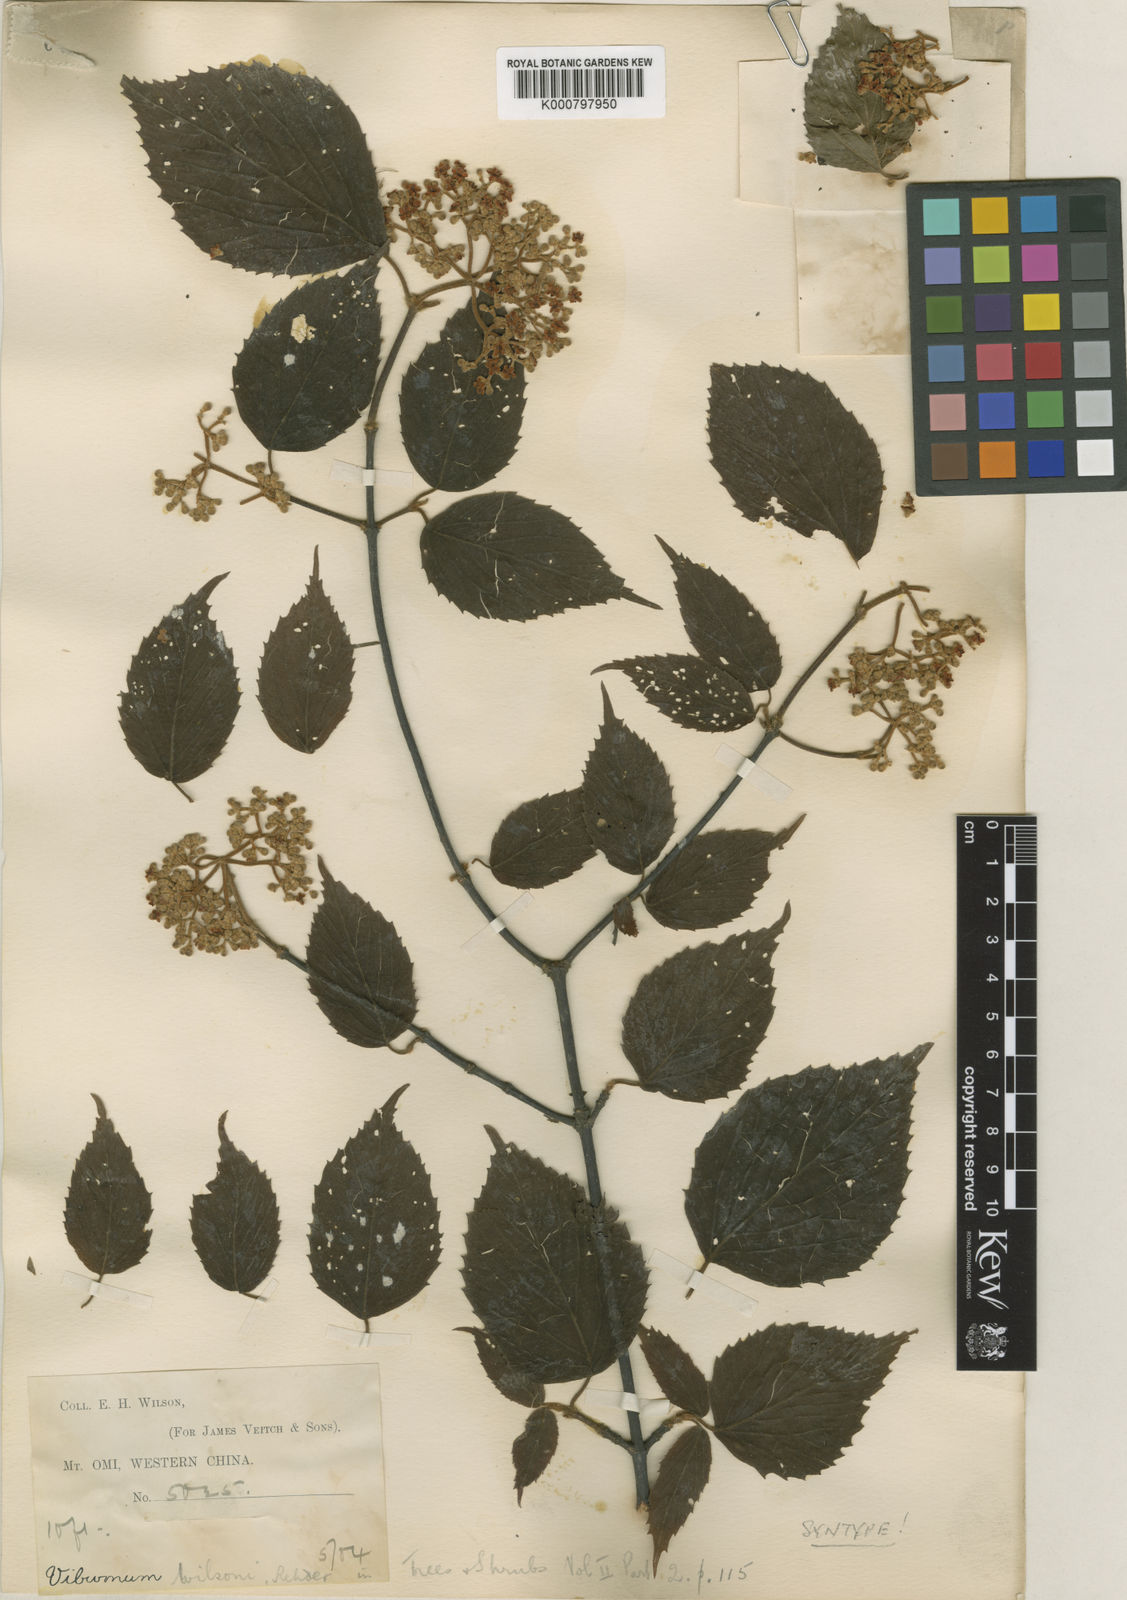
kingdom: Plantae
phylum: Tracheophyta
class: Magnoliopsida
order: Dipsacales
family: Viburnaceae
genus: Viburnum
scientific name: Viburnum betulifolium
